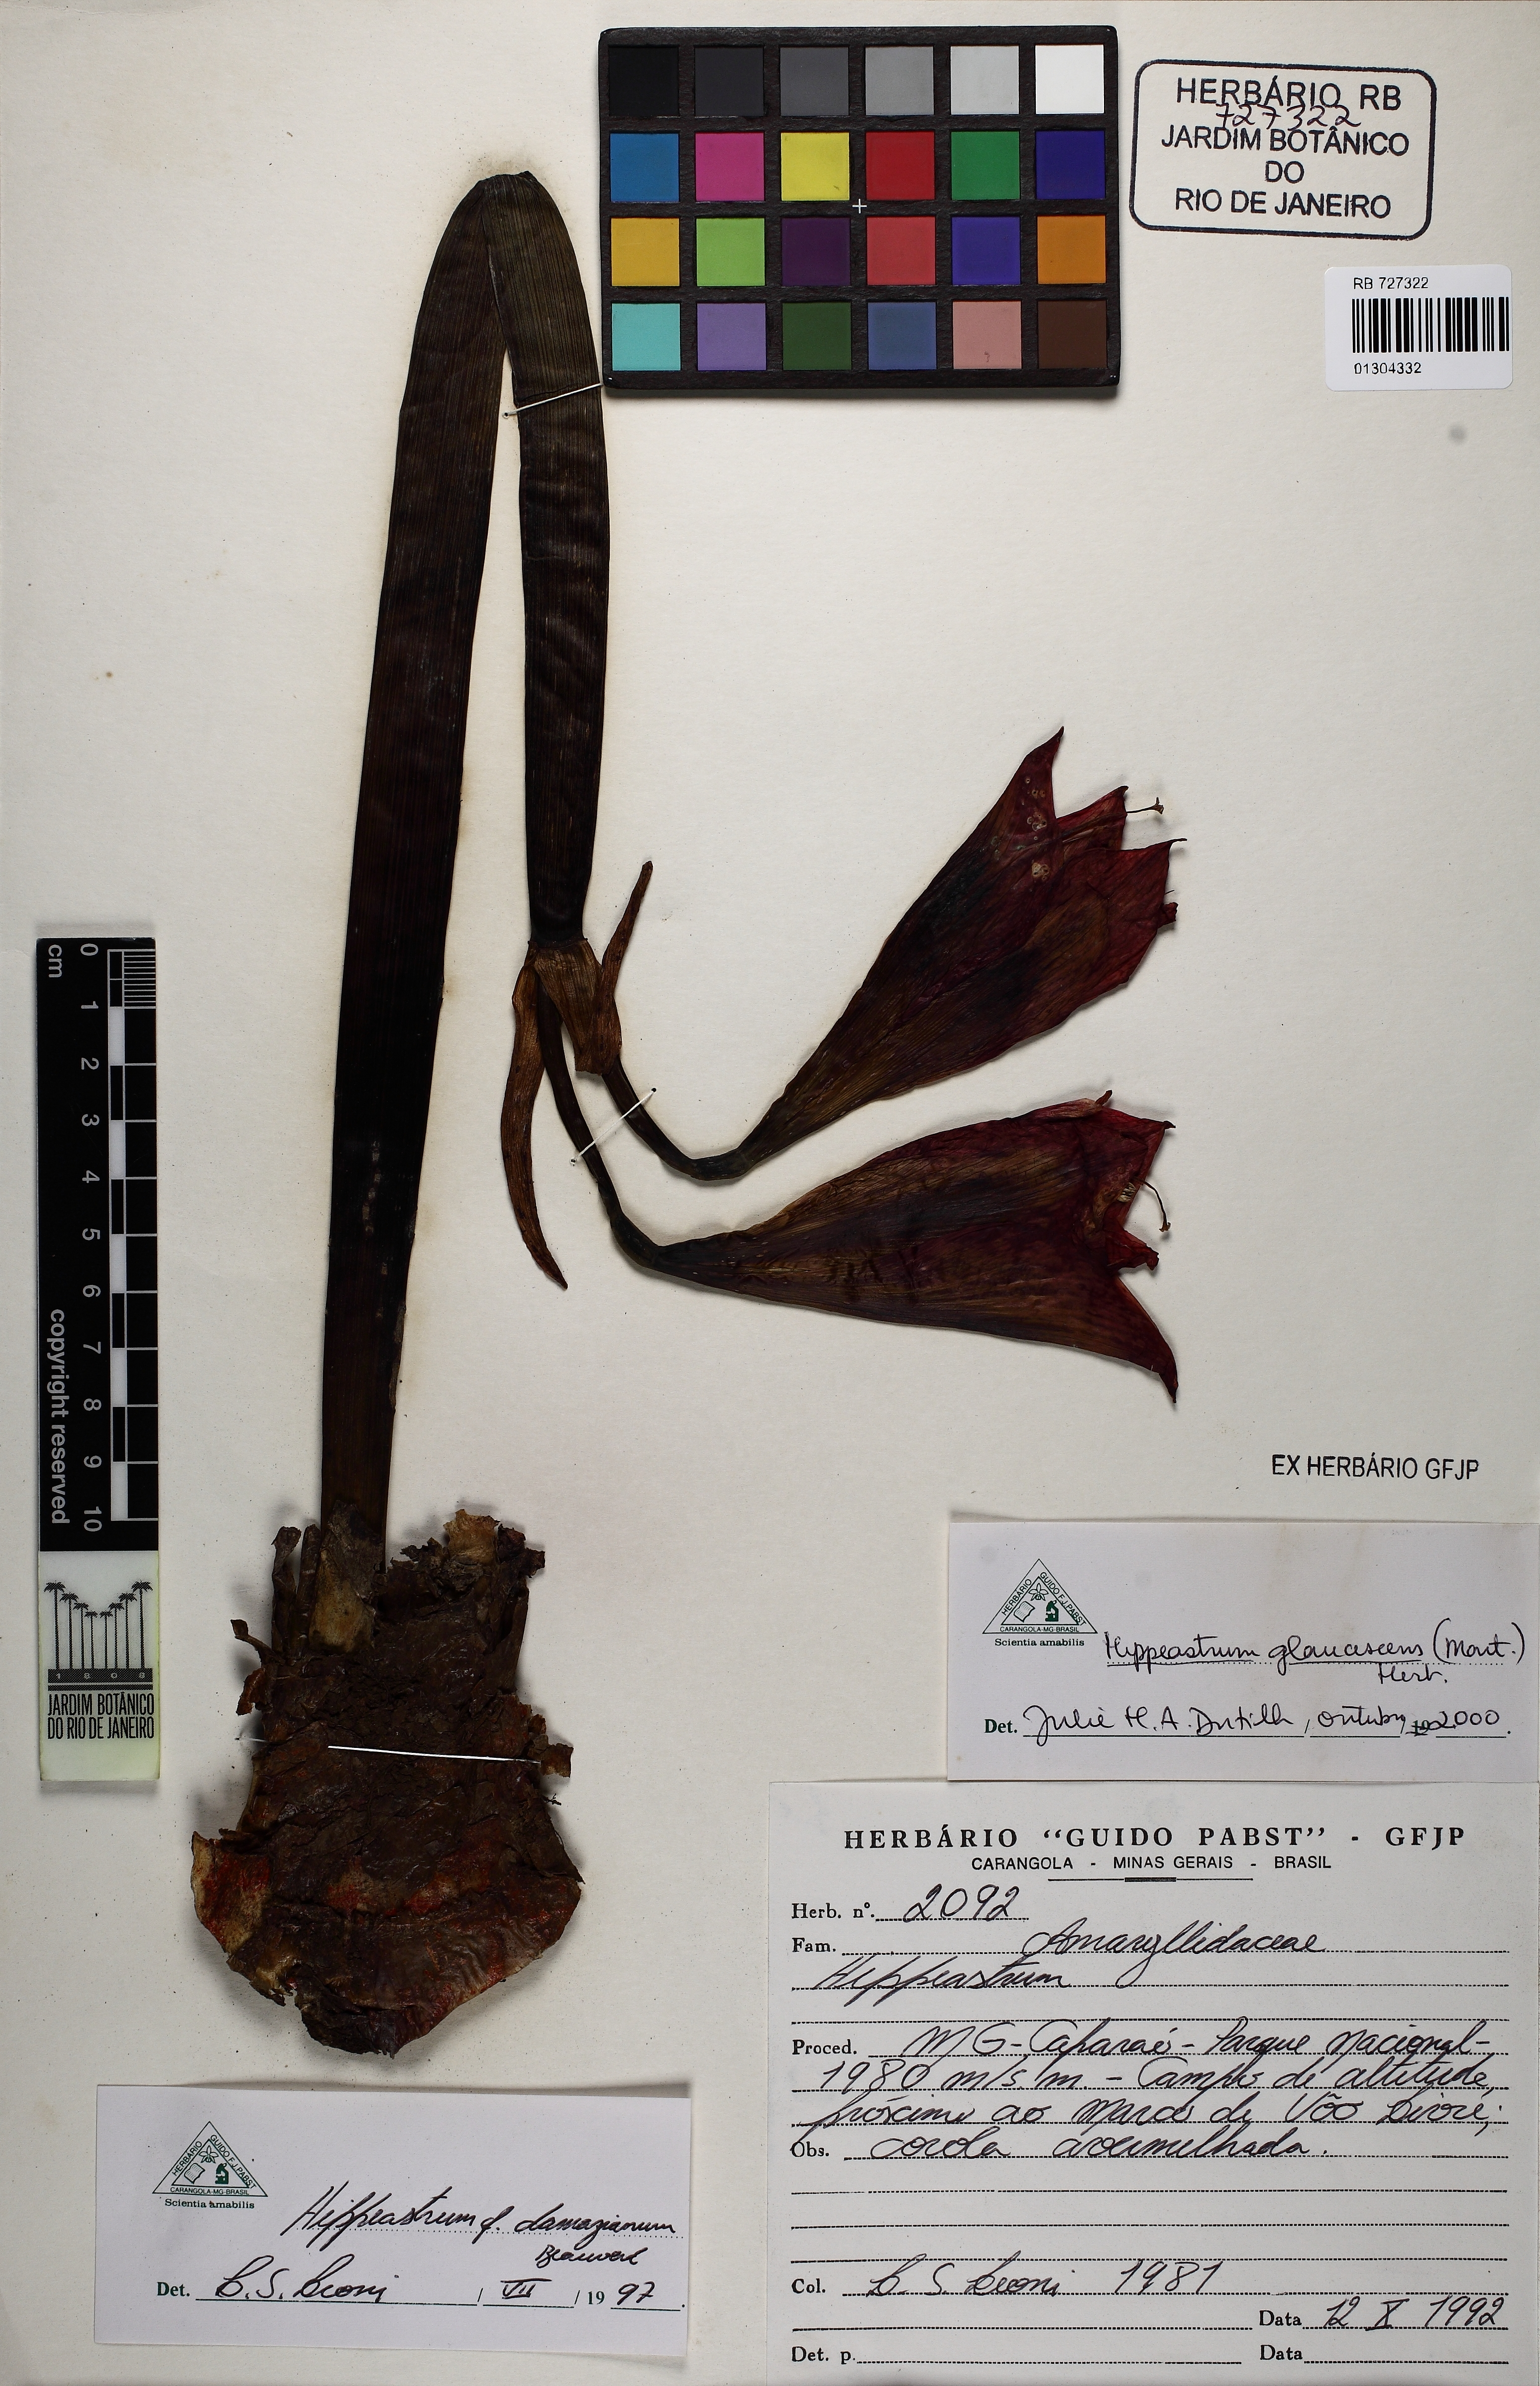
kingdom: Plantae
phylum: Tracheophyta
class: Liliopsida
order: Asparagales
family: Amaryllidaceae
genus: Hippeastrum
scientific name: Hippeastrum glaucescens
